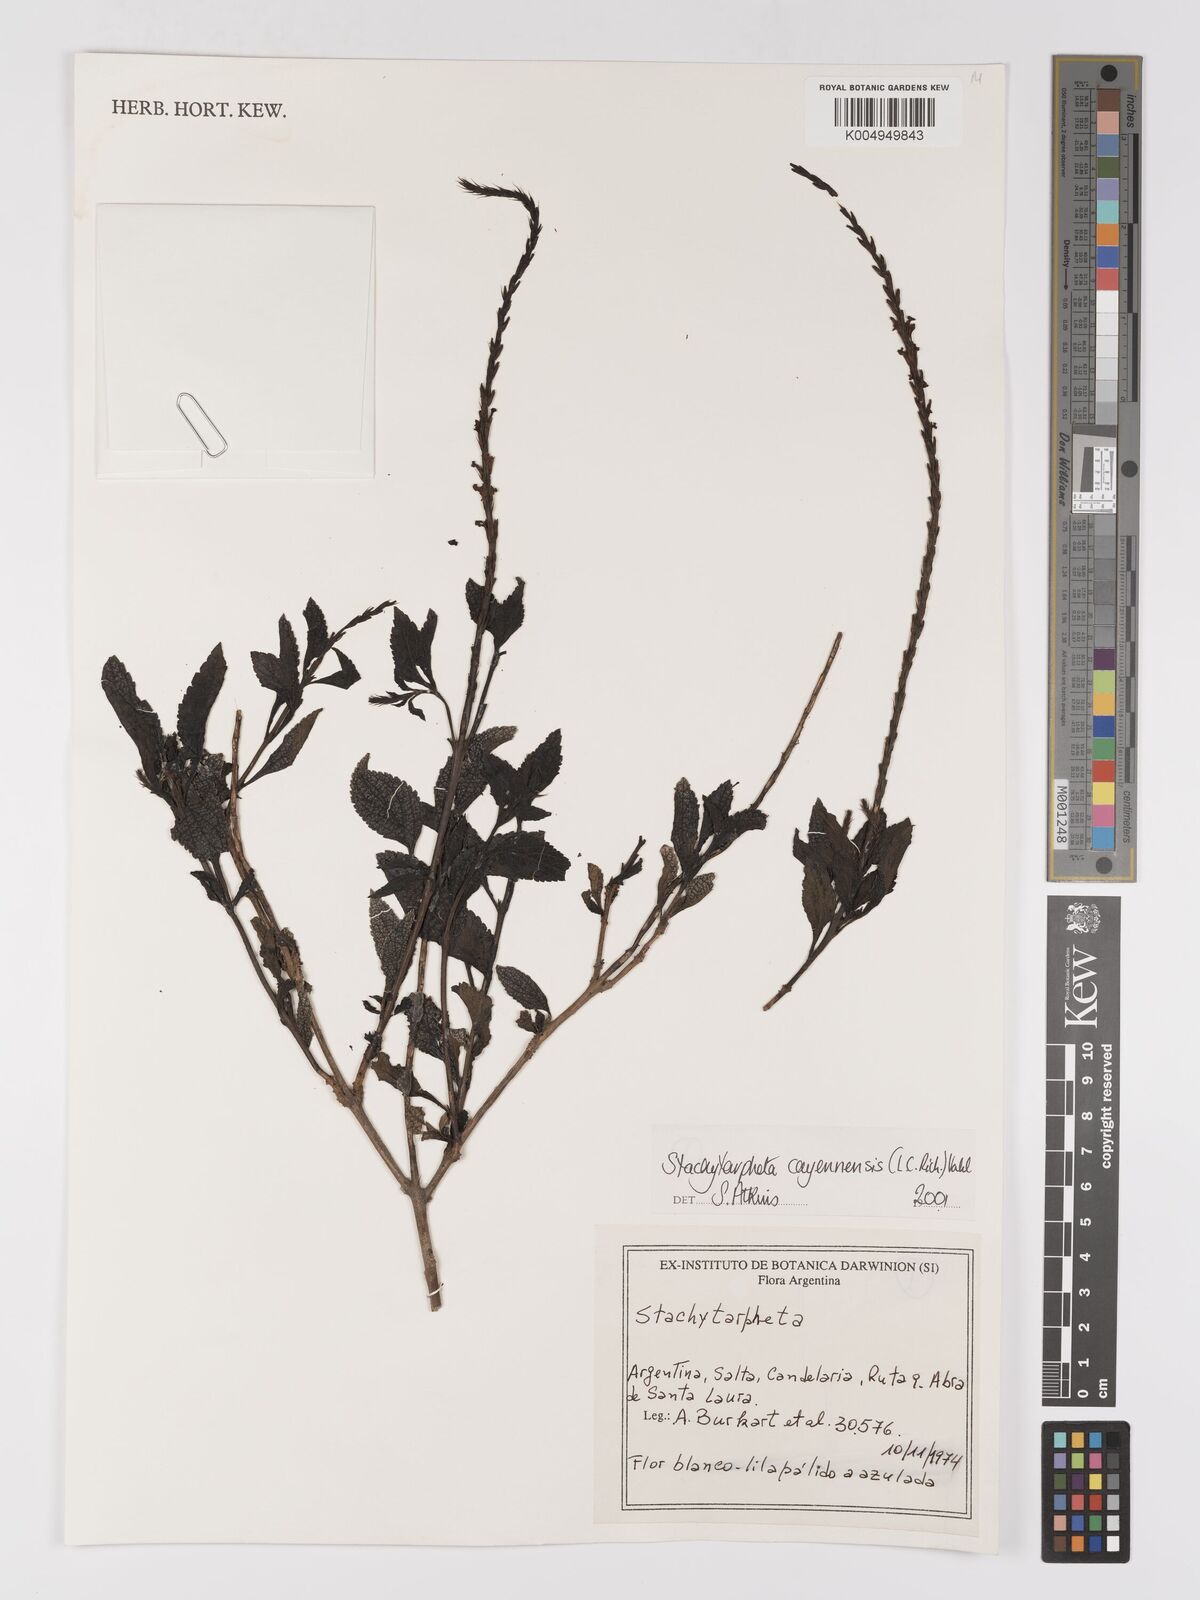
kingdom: Plantae
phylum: Tracheophyta
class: Magnoliopsida
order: Lamiales
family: Verbenaceae
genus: Stachytarpheta
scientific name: Stachytarpheta cayennensis
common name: Cayenne porterweed
